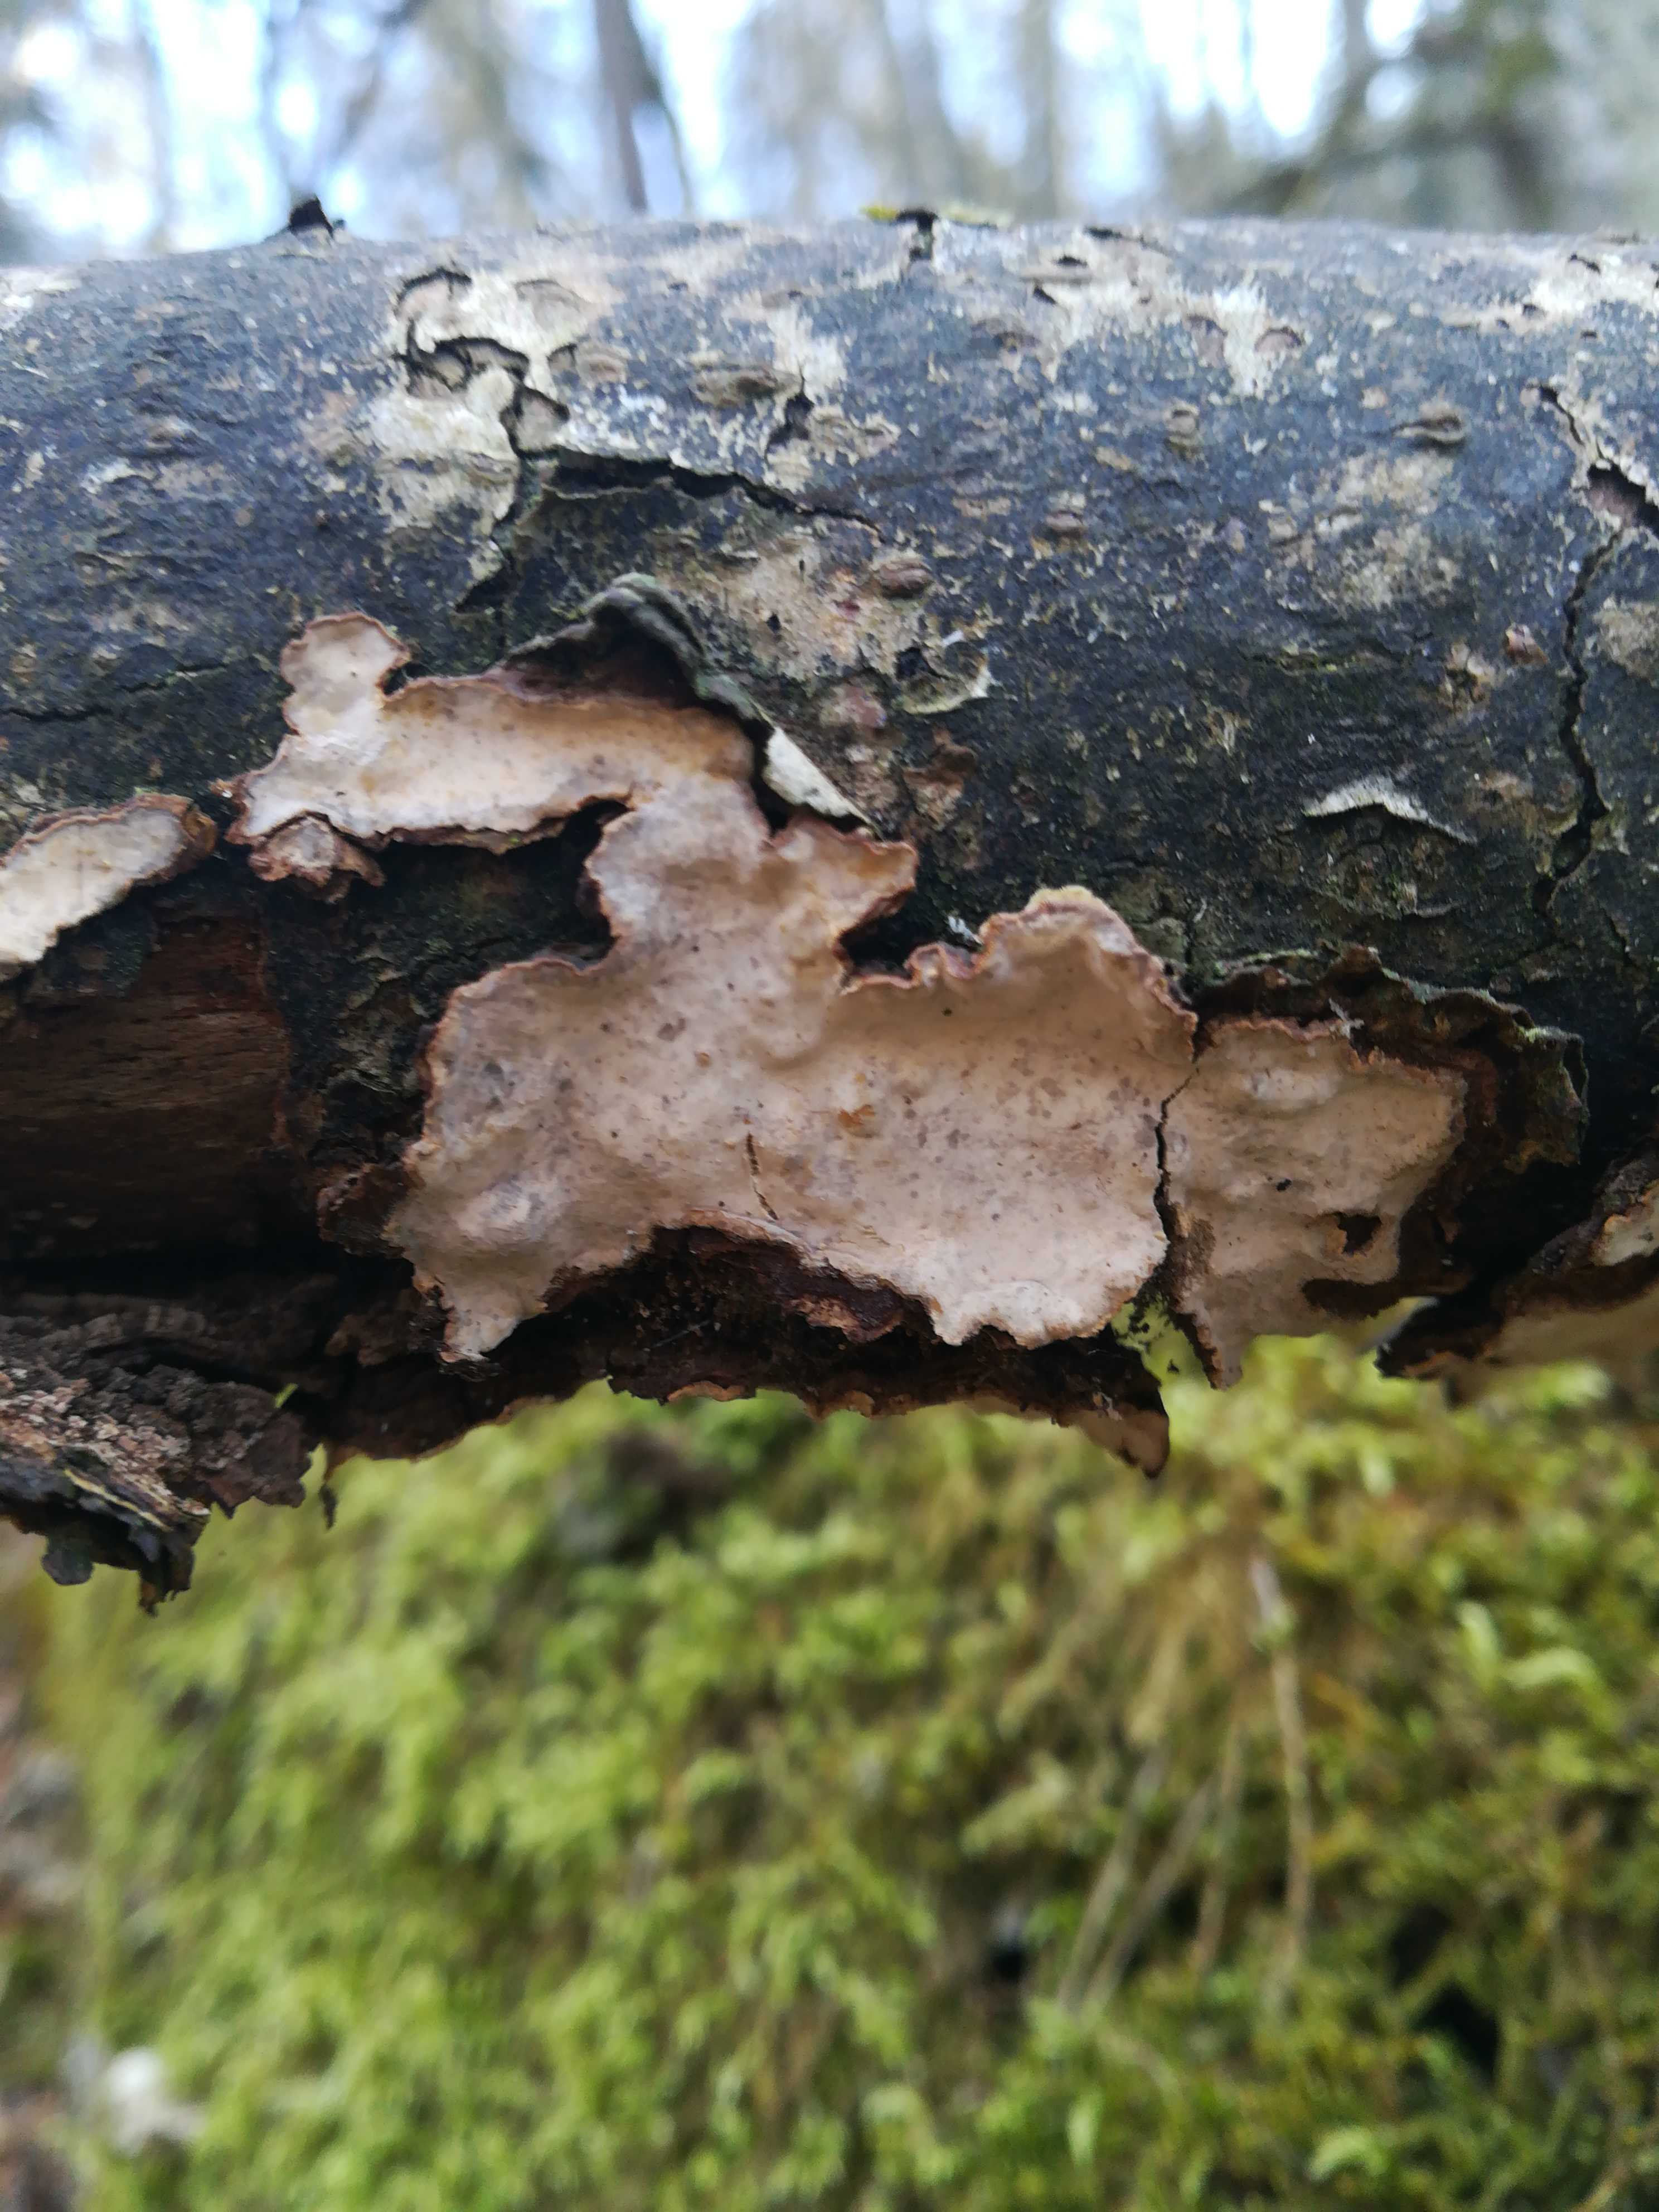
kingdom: Fungi
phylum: Basidiomycota
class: Agaricomycetes
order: Russulales
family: Stereaceae
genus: Stereum
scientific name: Stereum rugosum
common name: rynket lædersvamp
